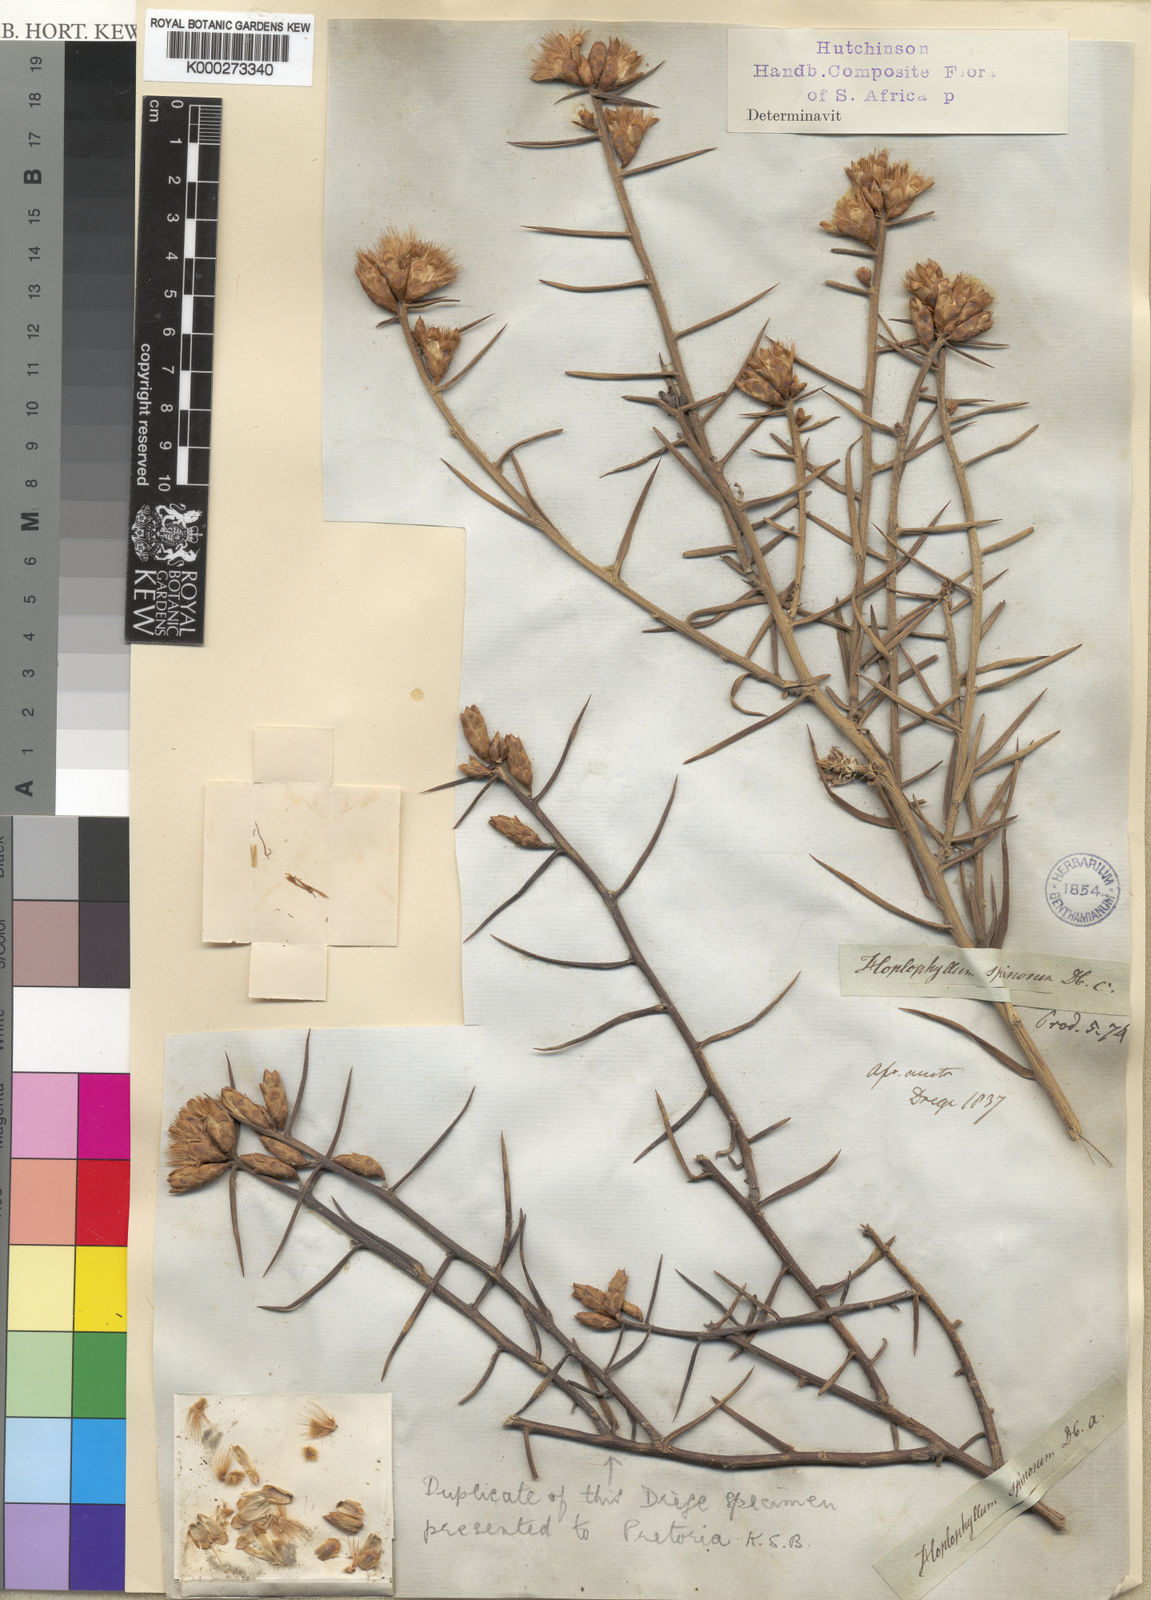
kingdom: Plantae
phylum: Tracheophyta
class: Magnoliopsida
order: Asterales
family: Asteraceae
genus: Hoplophyllum
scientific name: Hoplophyllum spinosum
